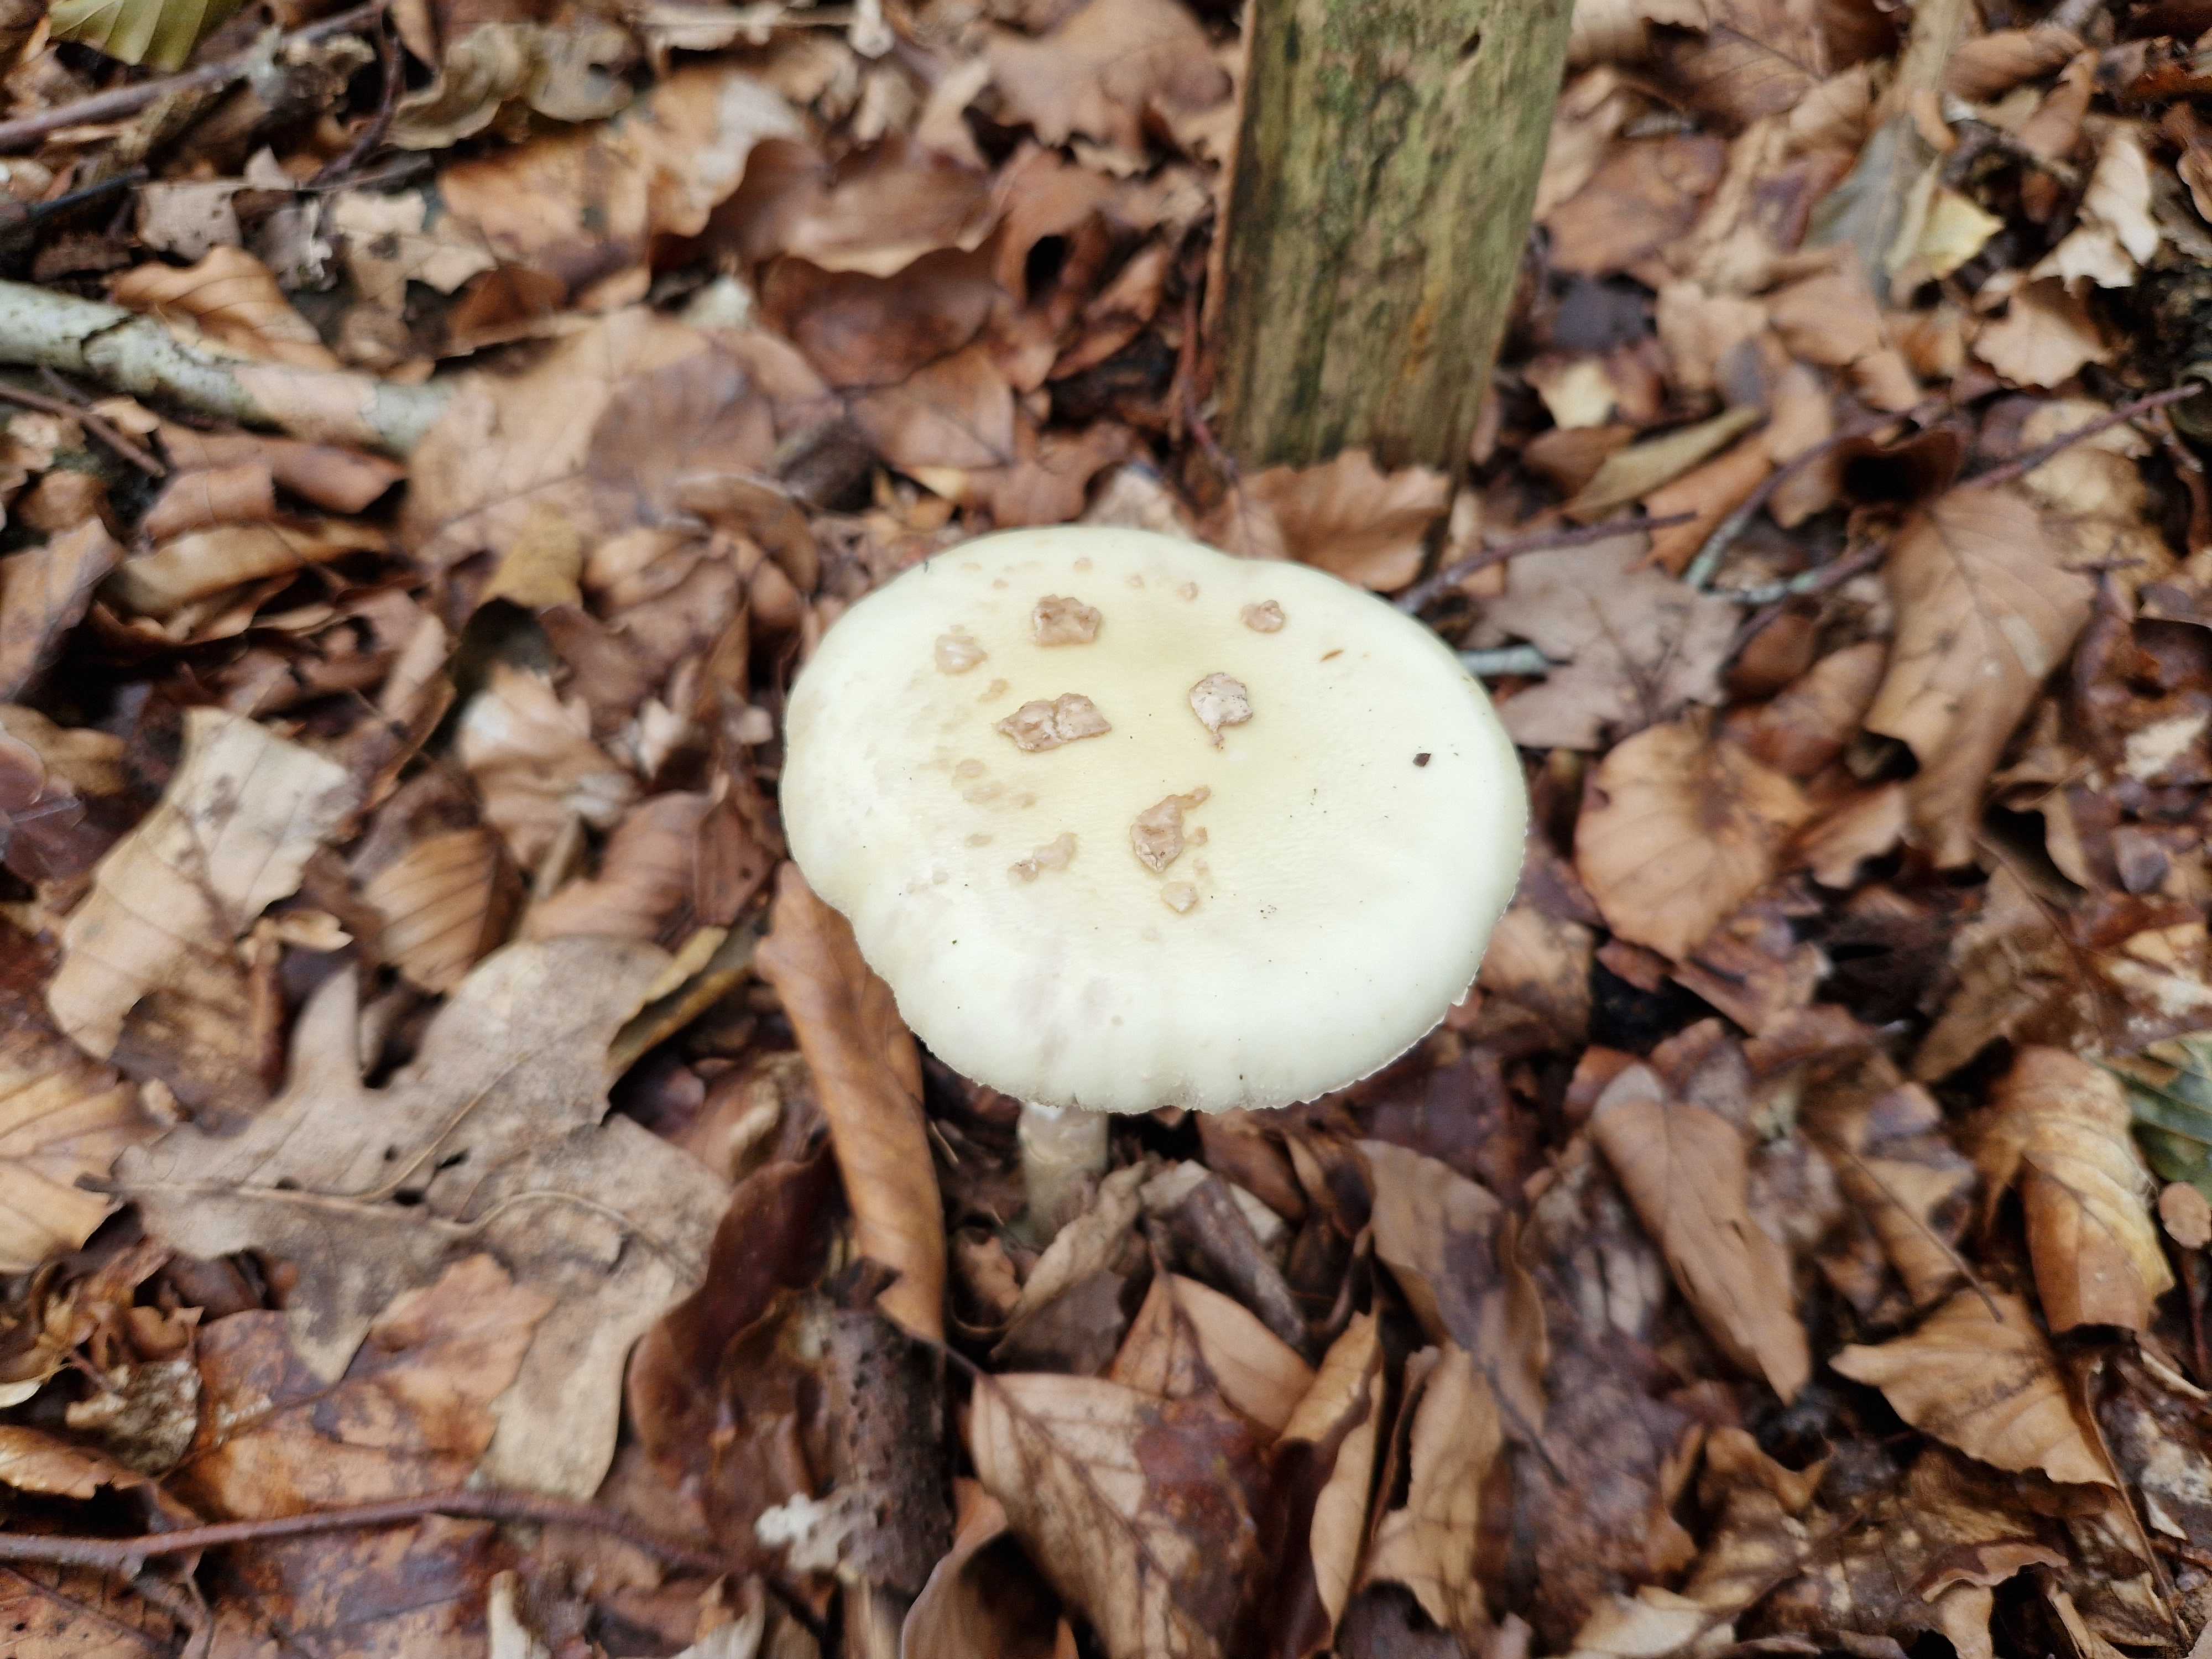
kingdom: Fungi
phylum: Basidiomycota
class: Agaricomycetes
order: Agaricales
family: Amanitaceae
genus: Amanita
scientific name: Amanita citrina
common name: kugleknoldet fluesvamp
